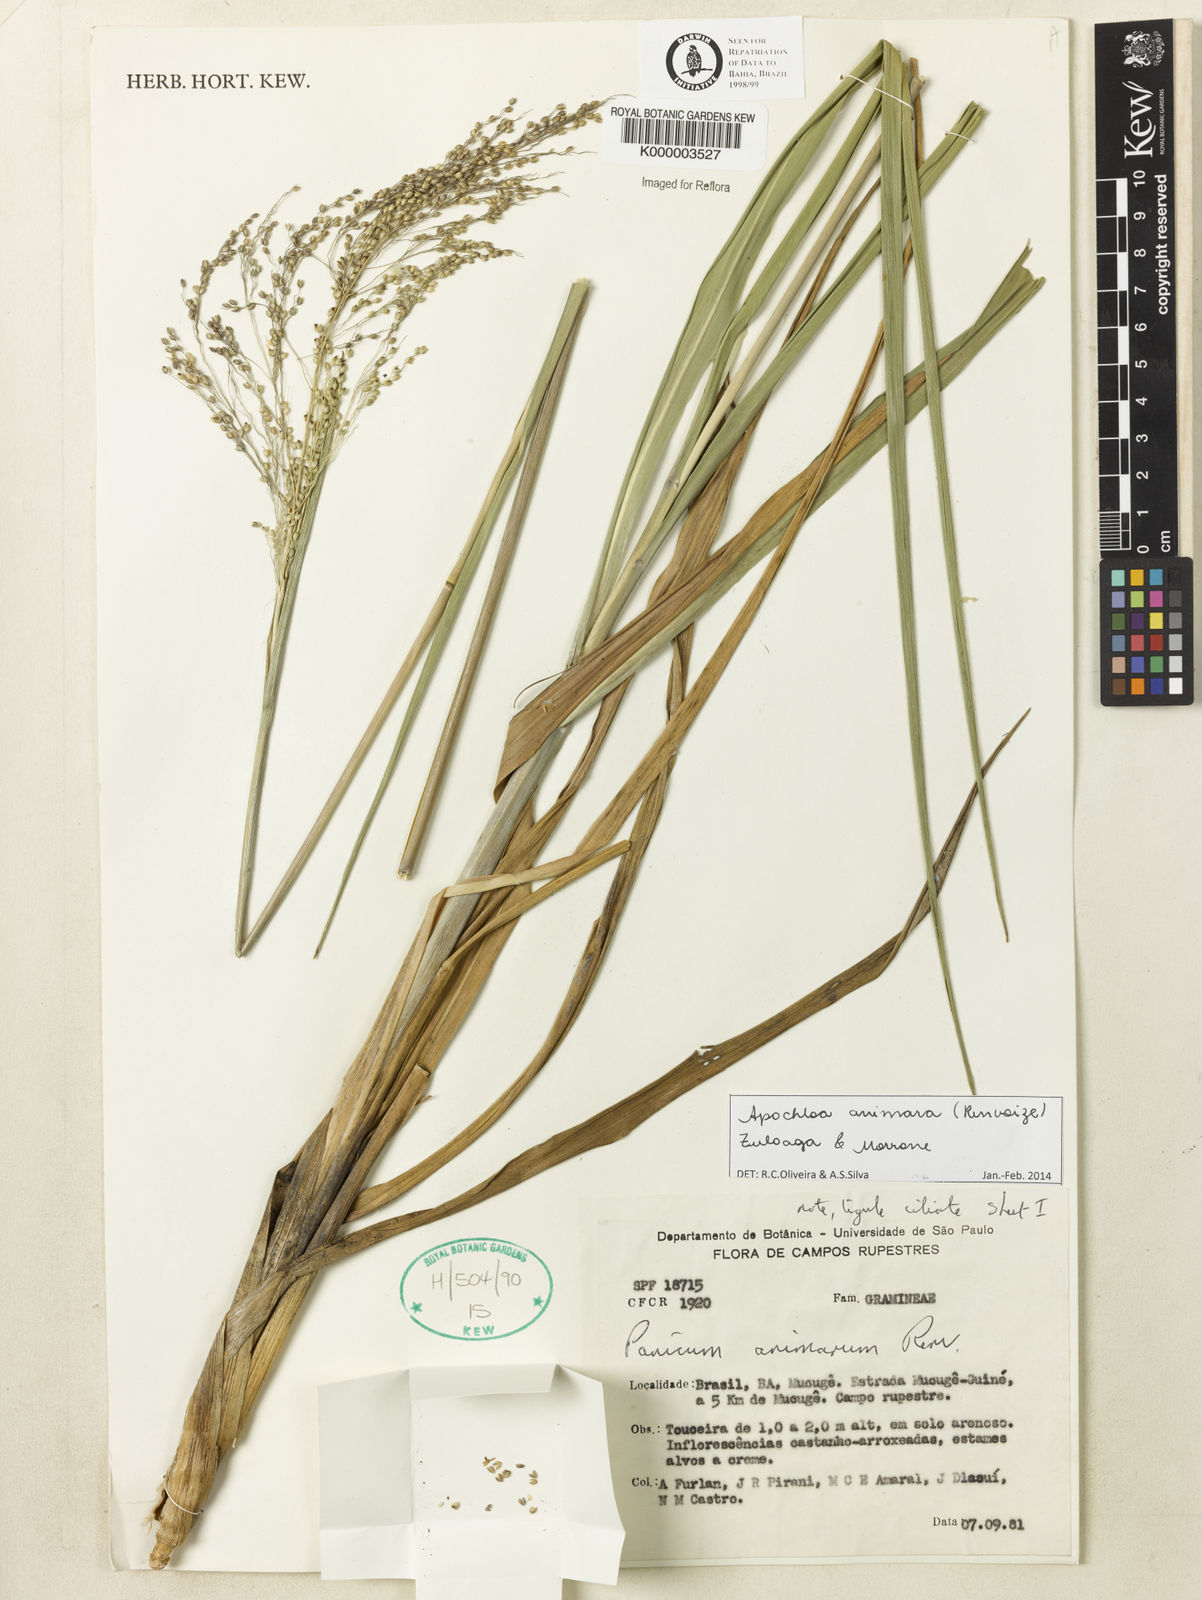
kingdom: Plantae
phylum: Tracheophyta
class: Liliopsida
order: Poales
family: Poaceae
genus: Apochloa
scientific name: Apochloa animara
